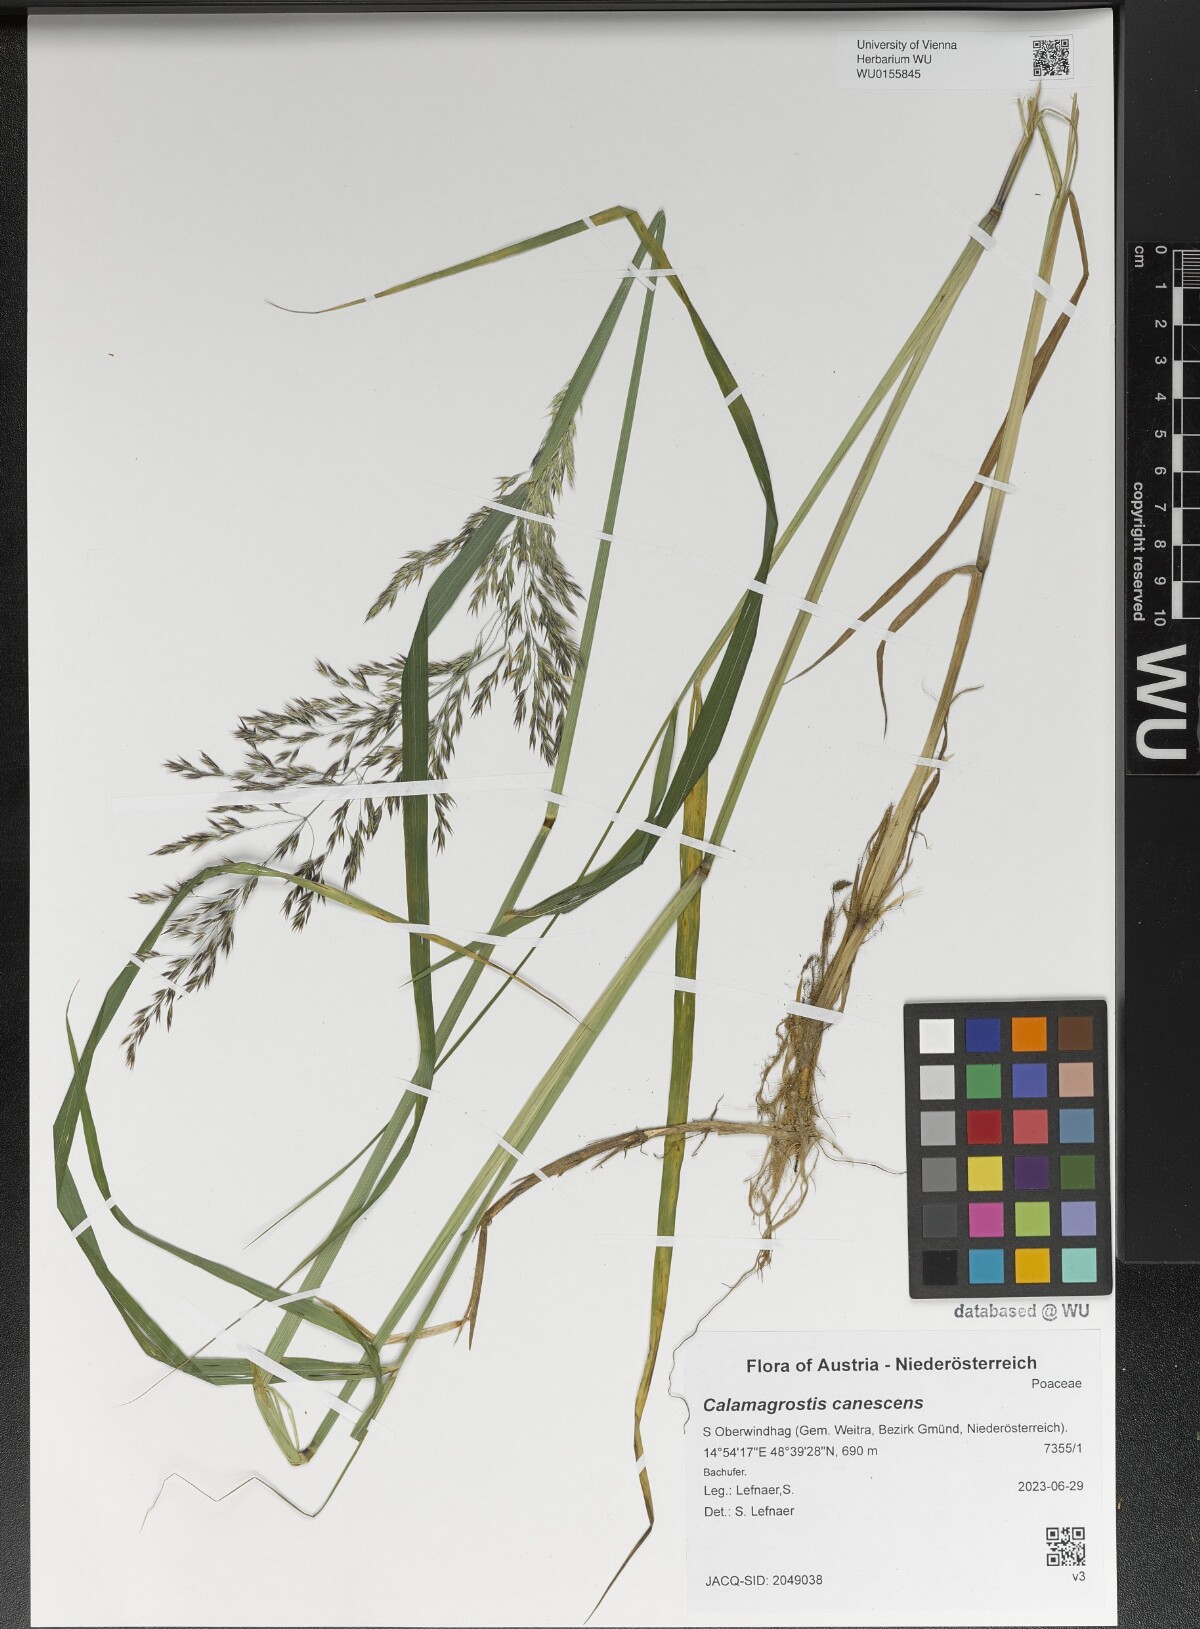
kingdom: Plantae
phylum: Tracheophyta
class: Liliopsida
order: Poales
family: Poaceae
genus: Calamagrostis
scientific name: Calamagrostis canescens
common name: Purple small-reed
